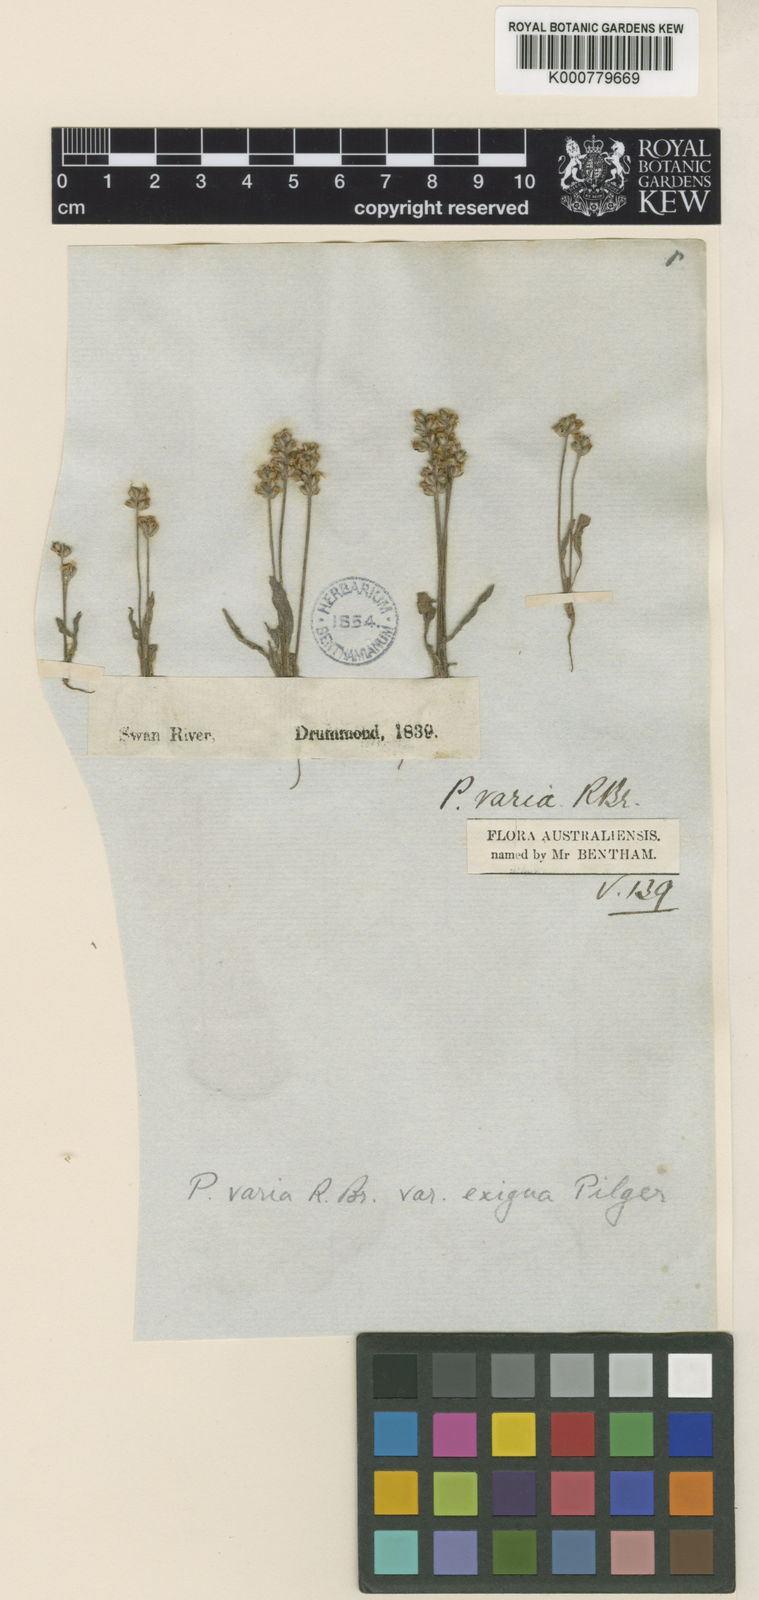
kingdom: Plantae
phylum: Tracheophyta
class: Magnoliopsida
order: Lamiales
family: Plantaginaceae
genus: Plantago
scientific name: Plantago varia
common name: Variable plantain
